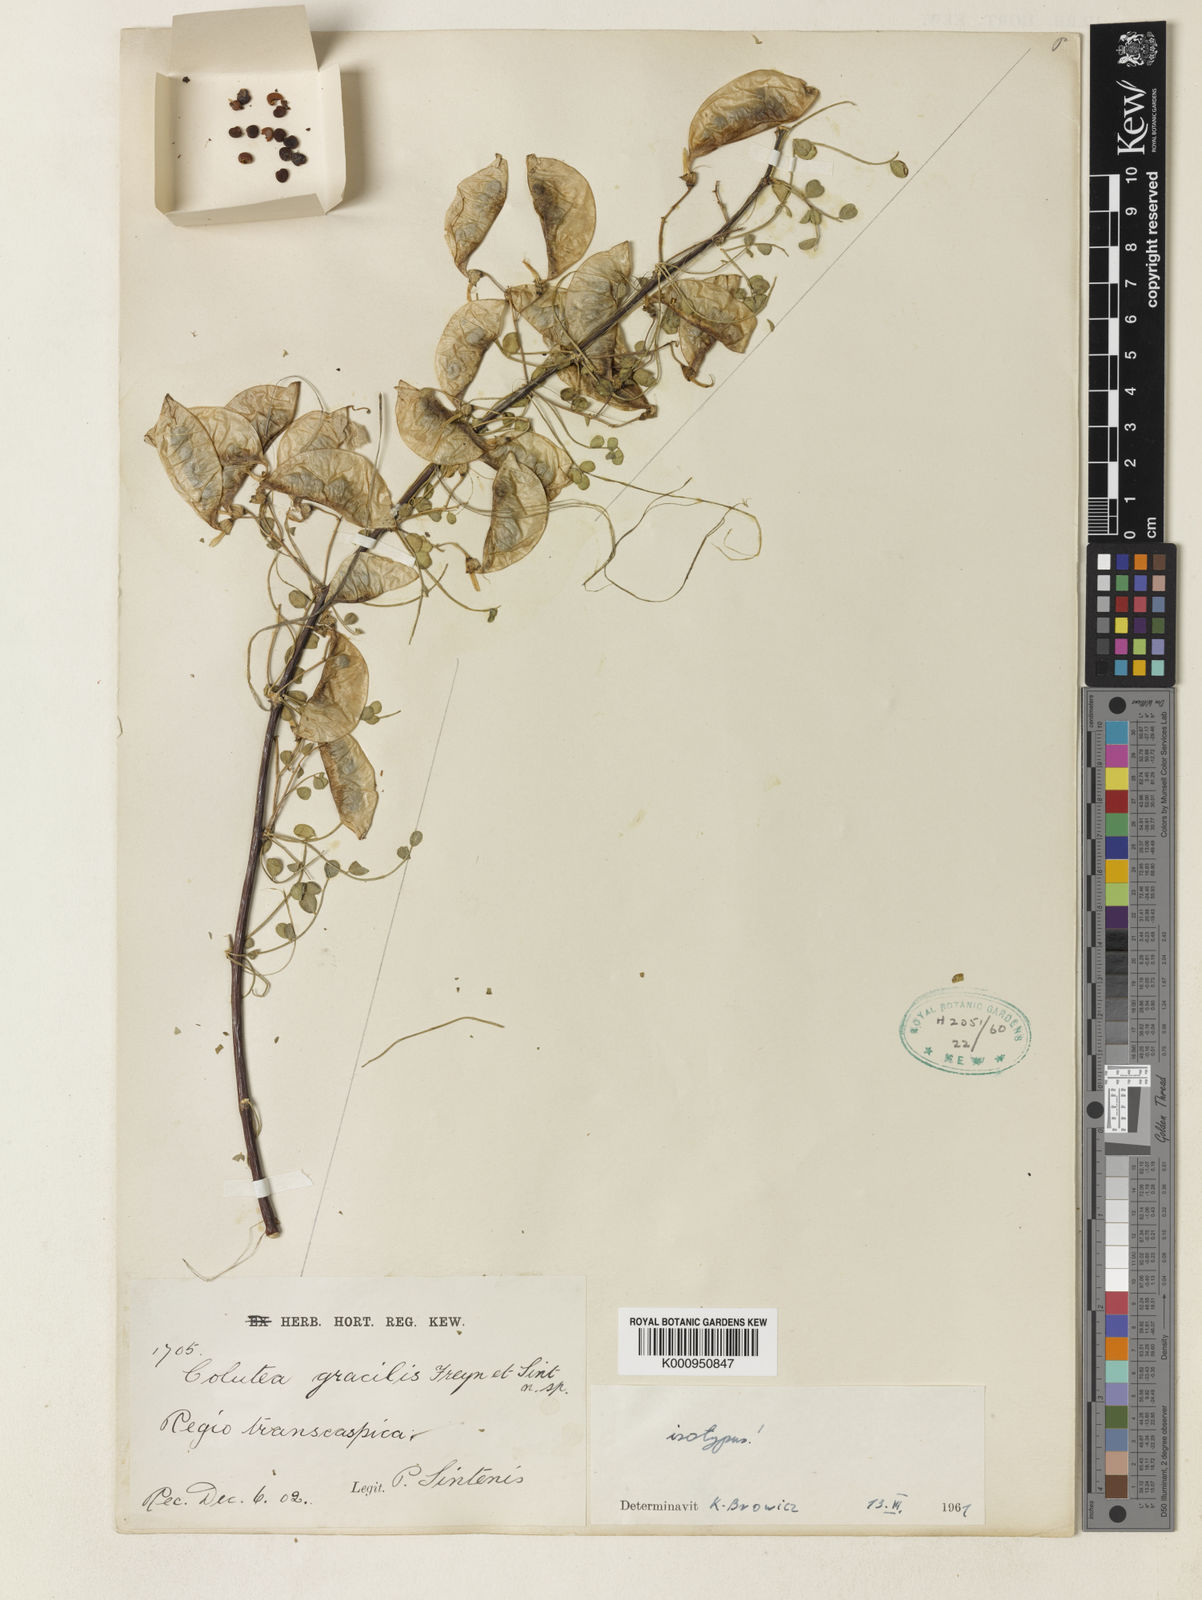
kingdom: Plantae
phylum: Tracheophyta
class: Magnoliopsida
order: Fabales
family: Fabaceae
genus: Colutea
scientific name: Colutea gracilis
